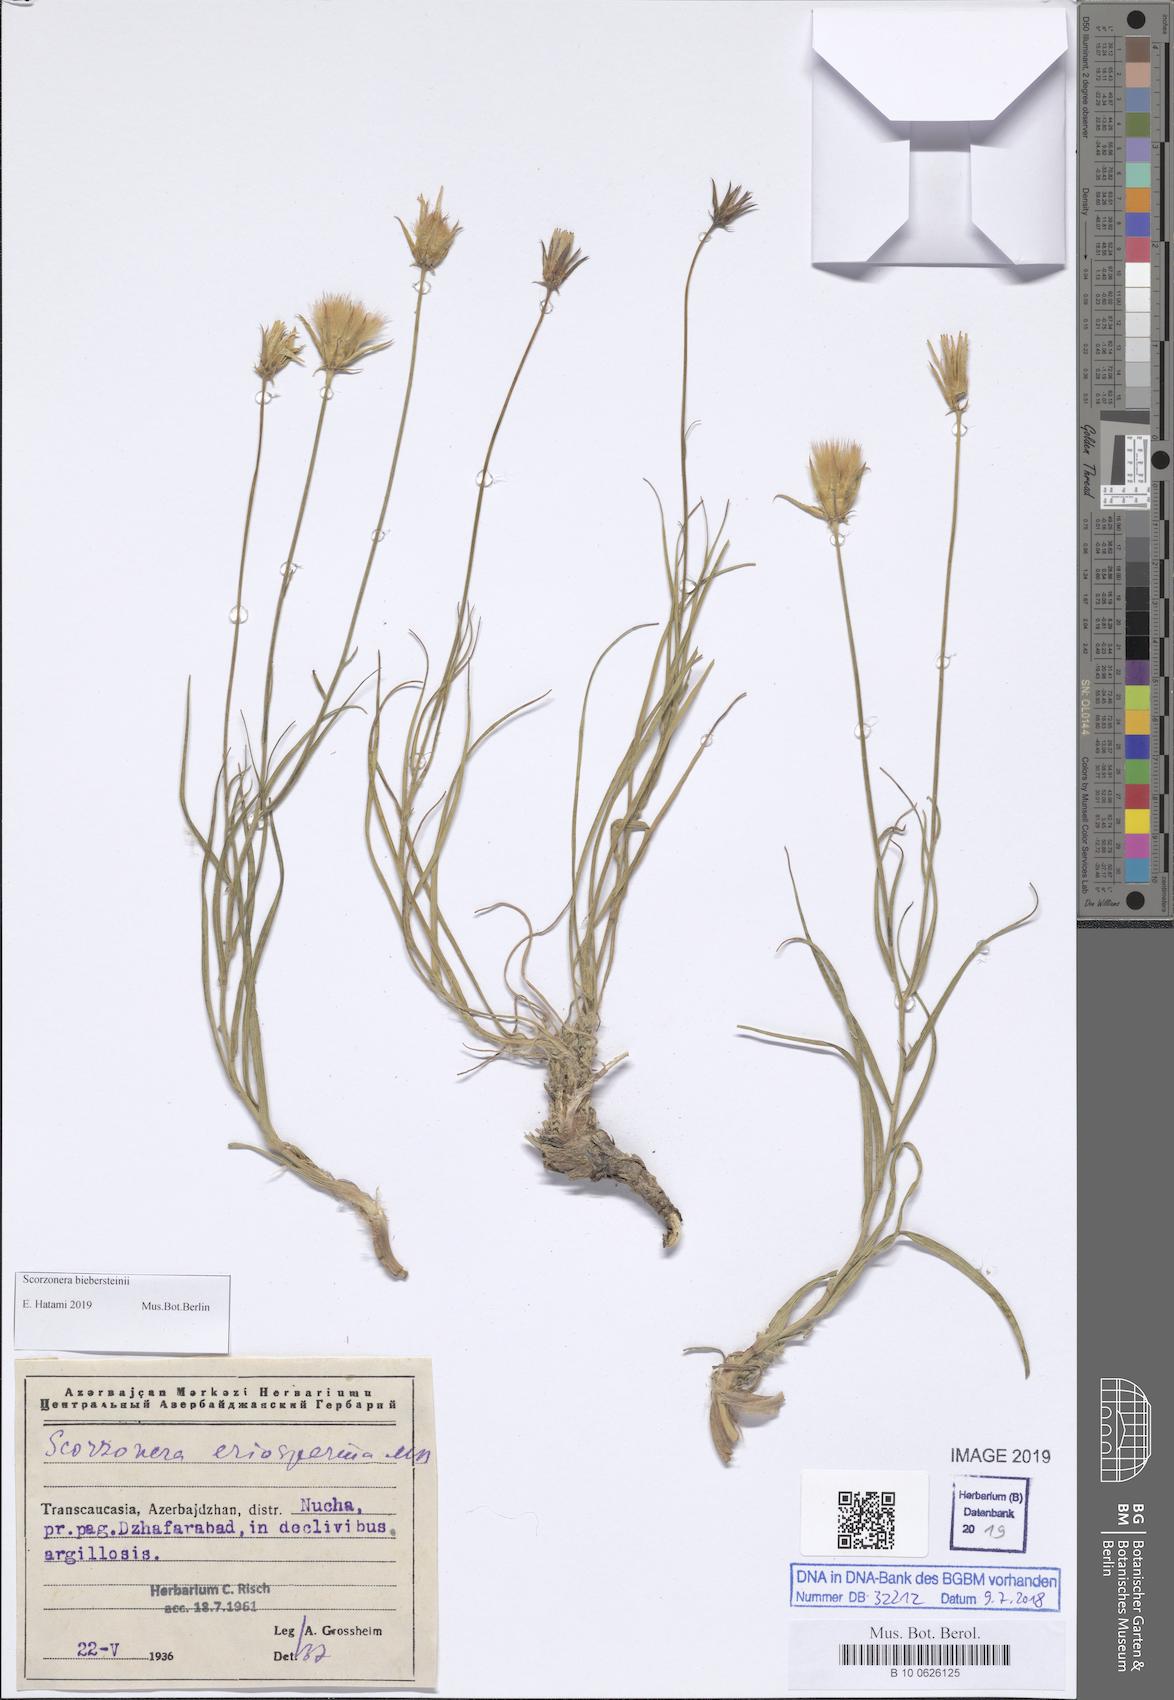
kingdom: Plantae
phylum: Tracheophyta
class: Magnoliopsida
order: Asterales
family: Asteraceae
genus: Gelasia
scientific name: Gelasia biebersteinii
